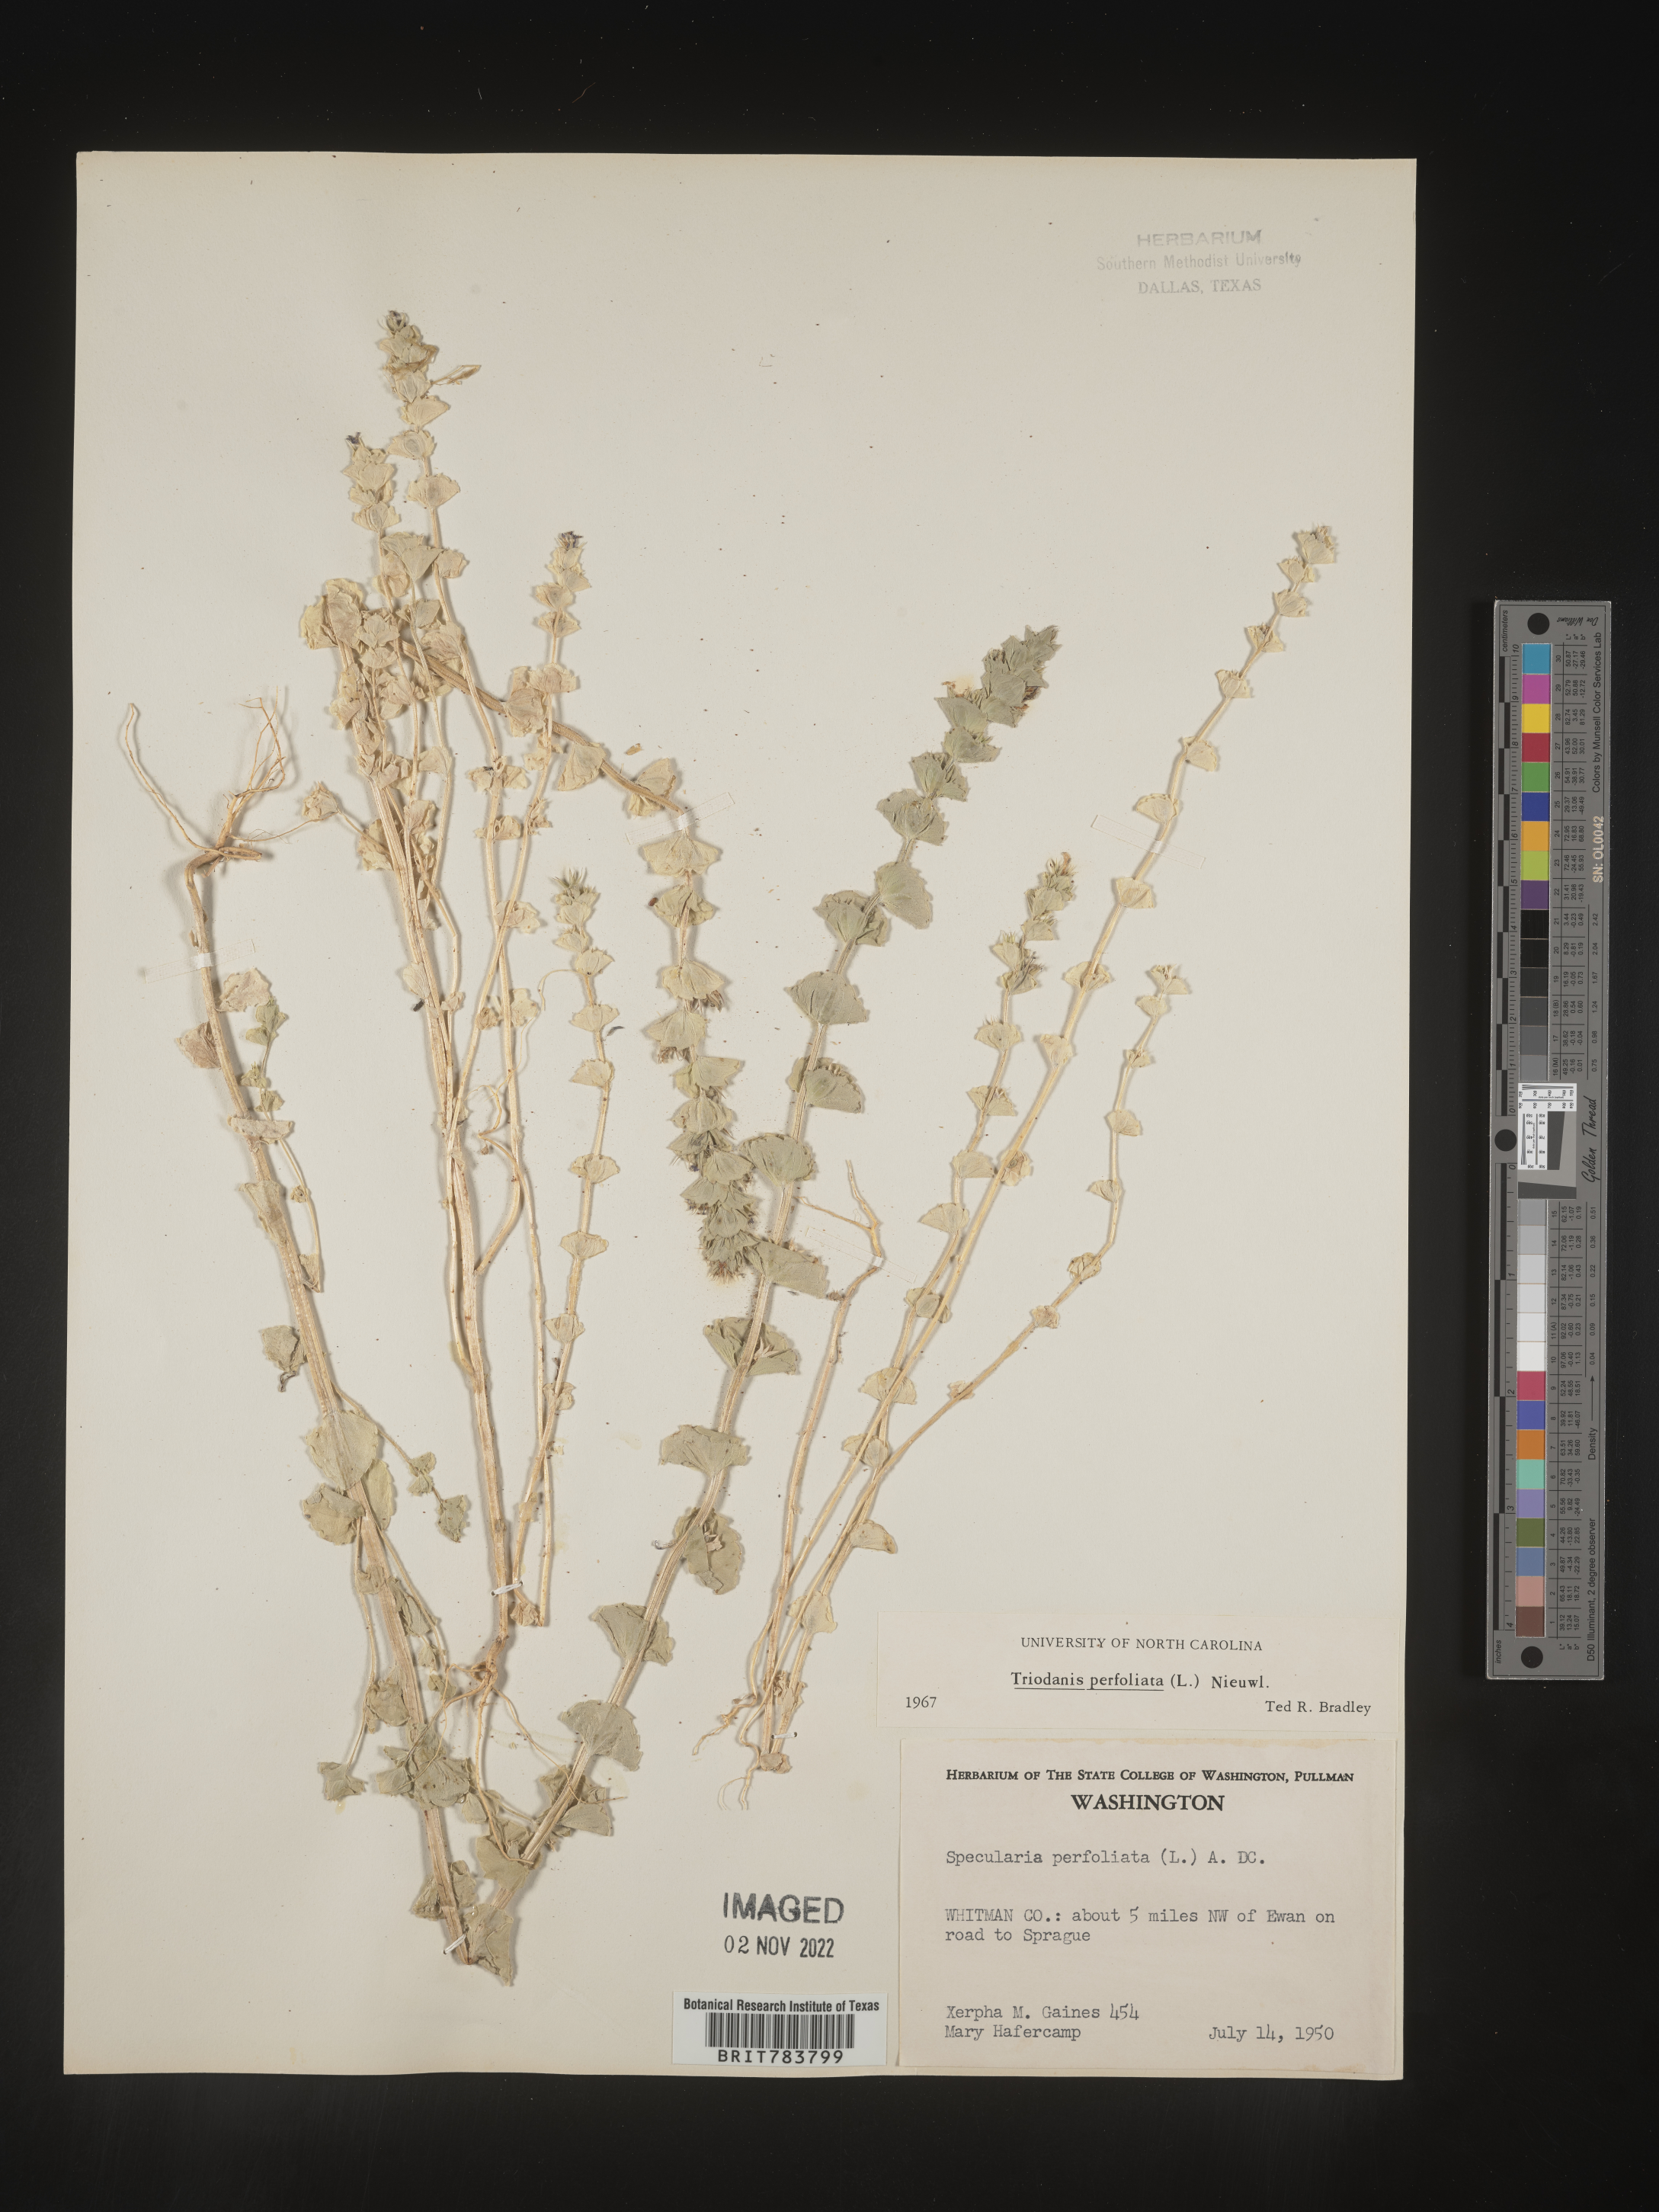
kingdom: Plantae
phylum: Tracheophyta
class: Magnoliopsida
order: Asterales
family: Campanulaceae
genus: Triodanis
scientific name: Triodanis perfoliata
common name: Clasping venus' looking-glass
